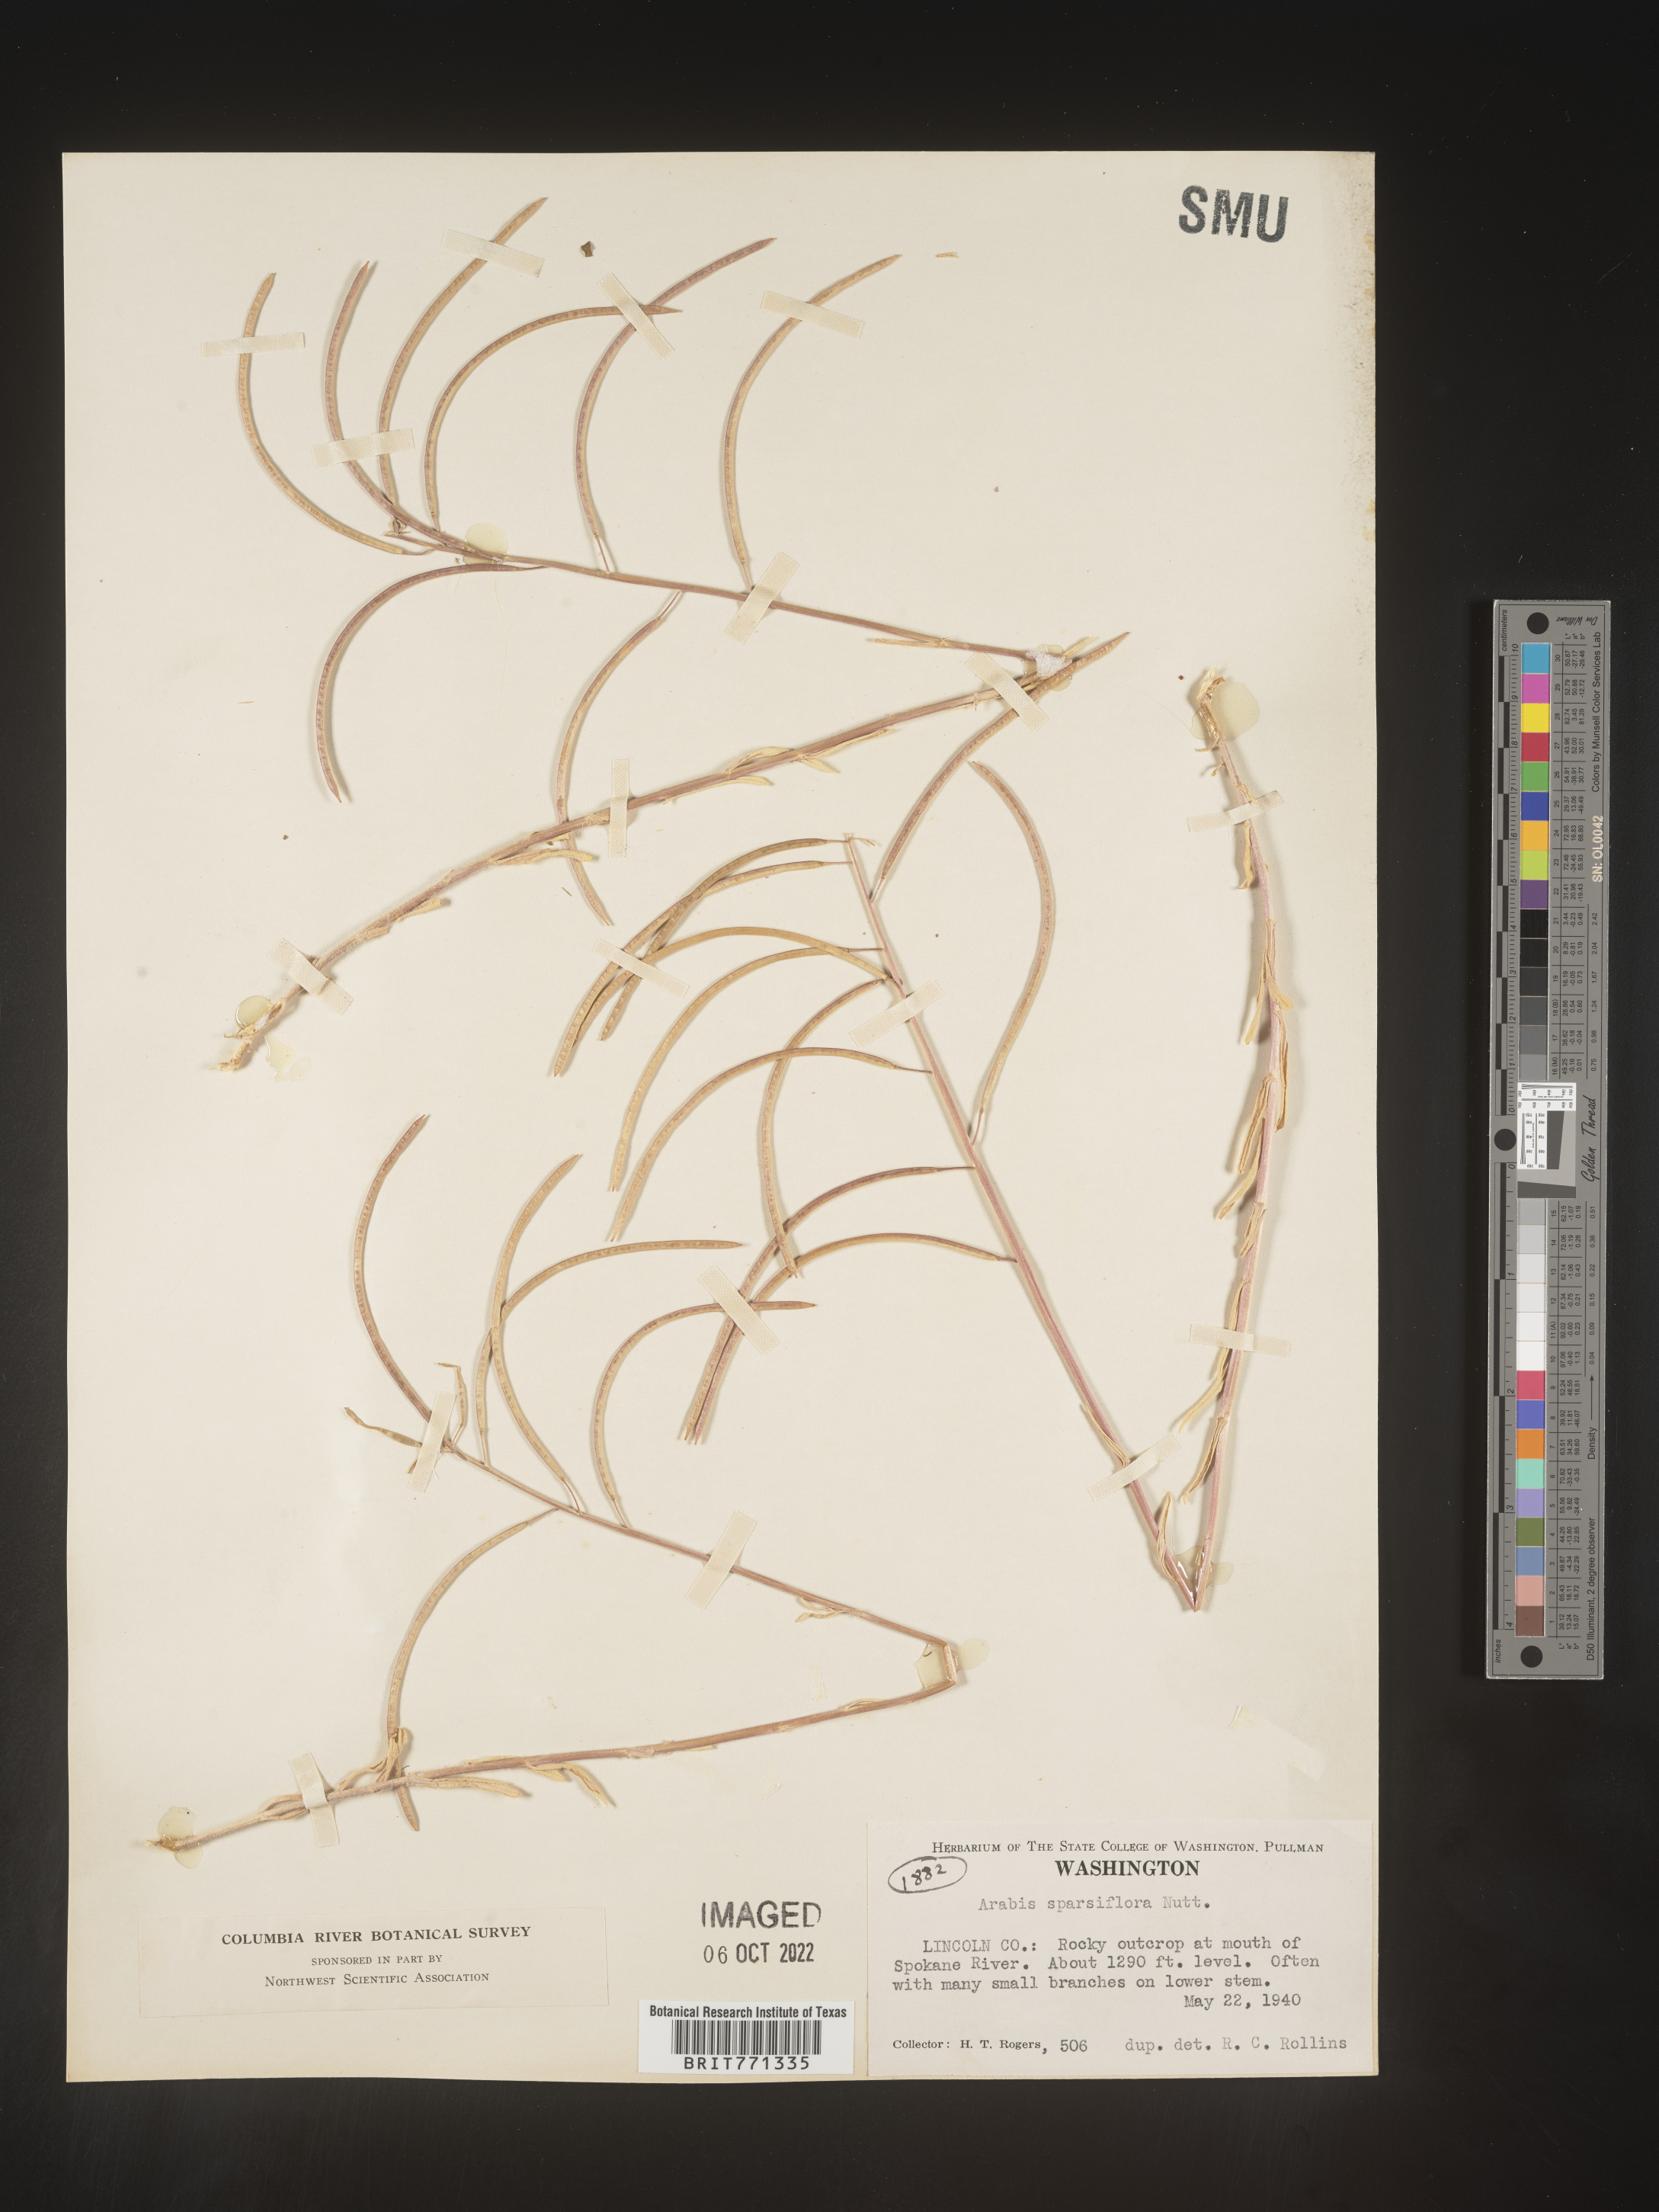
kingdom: Plantae
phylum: Tracheophyta
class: Magnoliopsida
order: Brassicales
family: Brassicaceae
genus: Arabis
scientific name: Arabis
